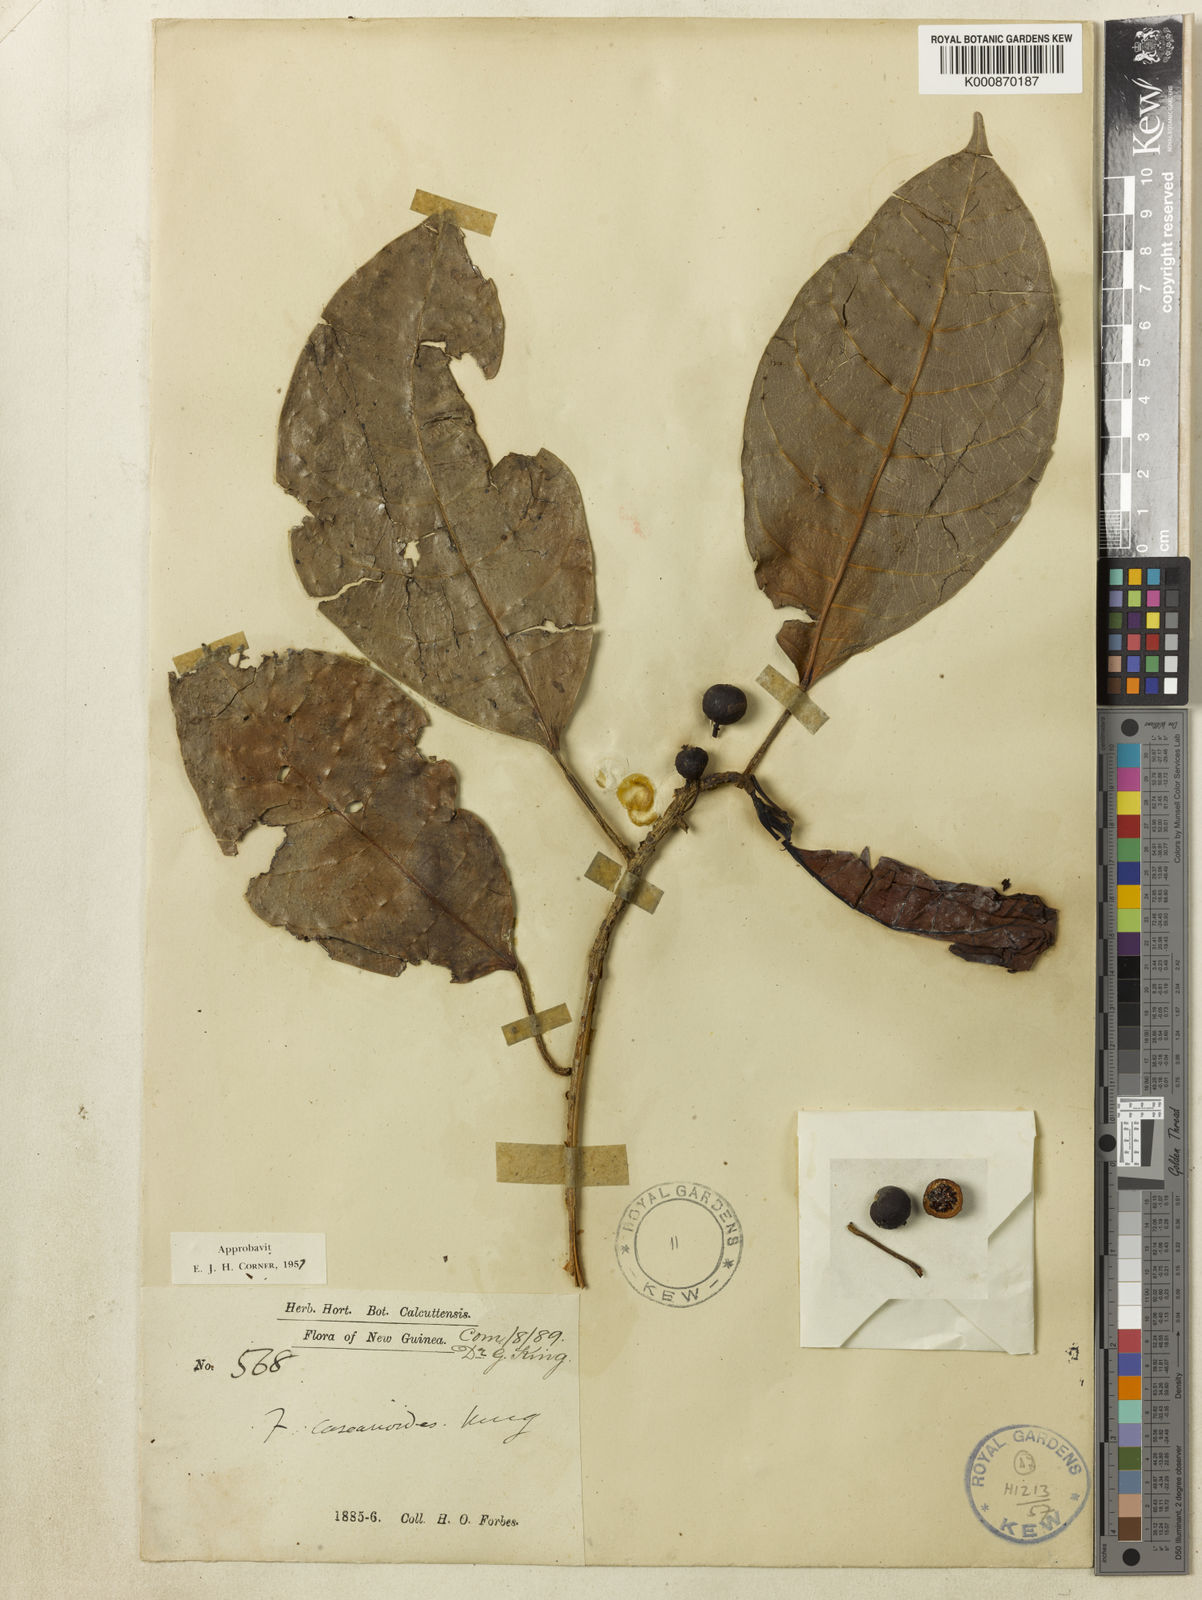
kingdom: Plantae
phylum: Tracheophyta
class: Magnoliopsida
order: Rosales
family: Moraceae
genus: Ficus
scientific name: Ficus casearioides
